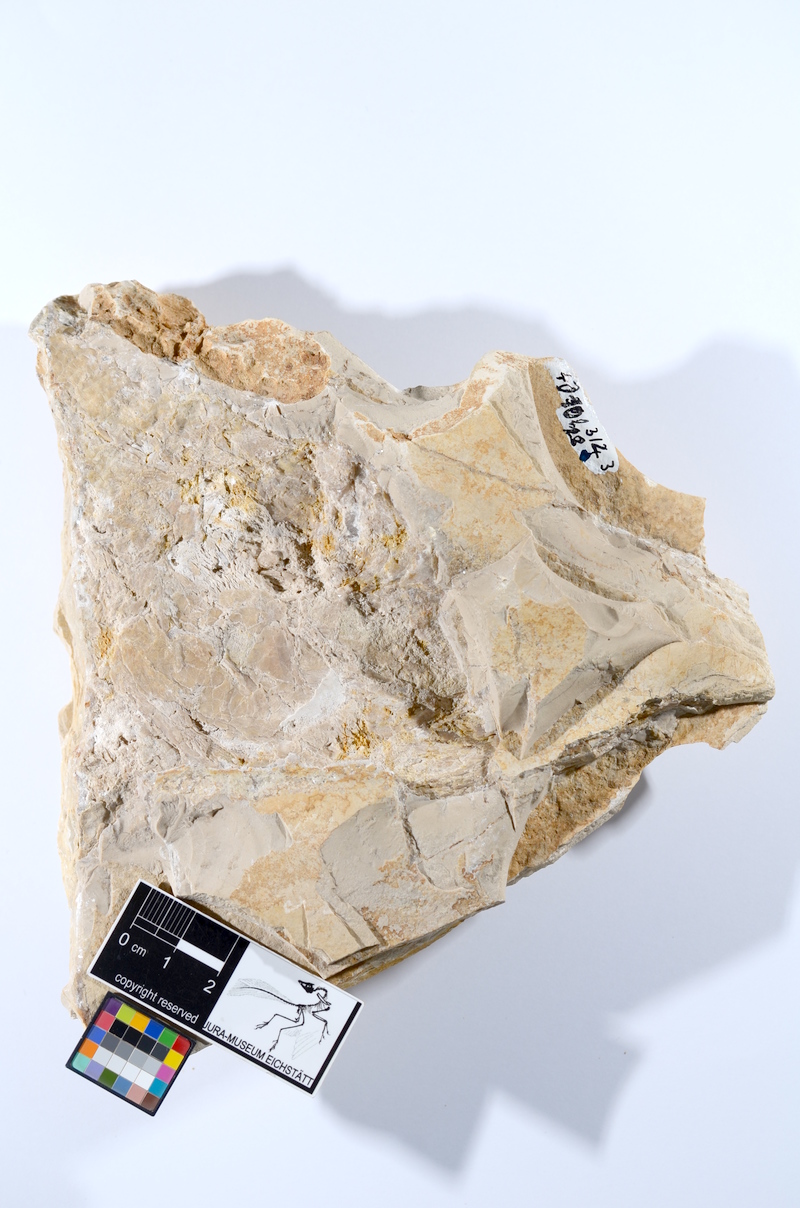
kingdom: Animalia
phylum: Chordata
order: Amiiformes
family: Caturidae
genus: Caturus
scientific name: Caturus furcatus
